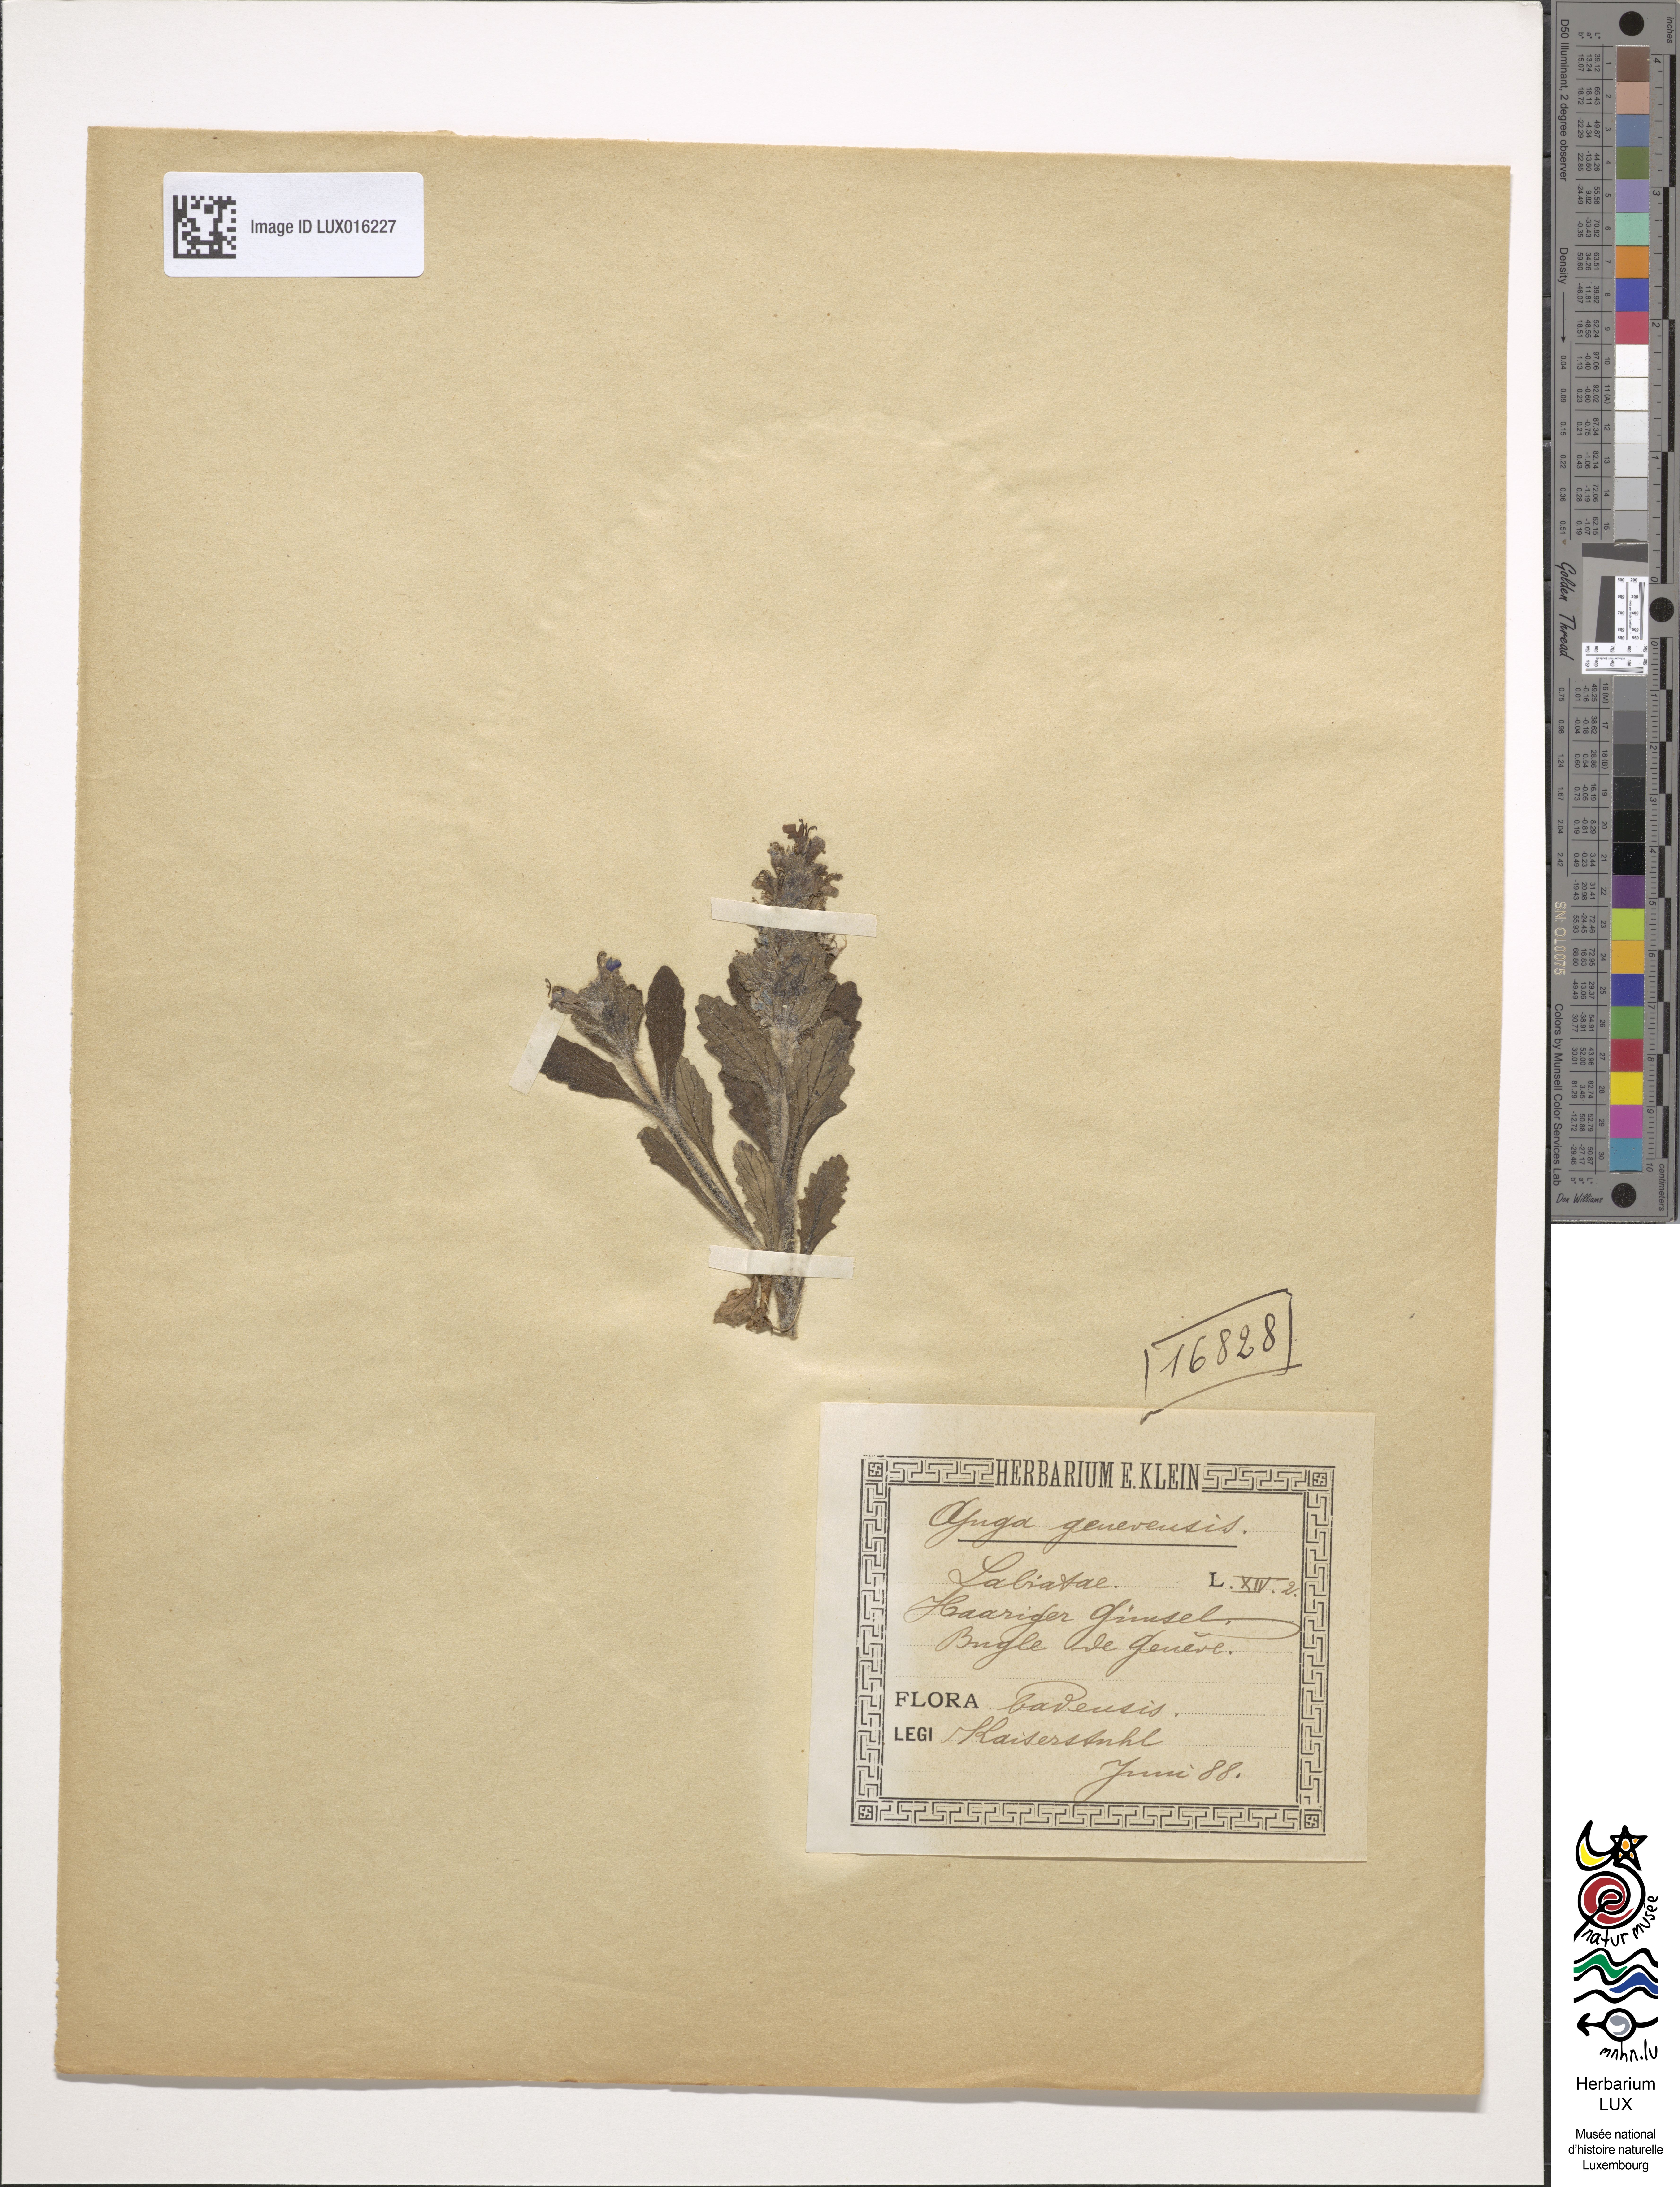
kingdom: Plantae
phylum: Tracheophyta
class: Magnoliopsida
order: Lamiales
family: Lamiaceae
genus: Ajuga
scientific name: Ajuga genevensis
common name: Blue bugle
